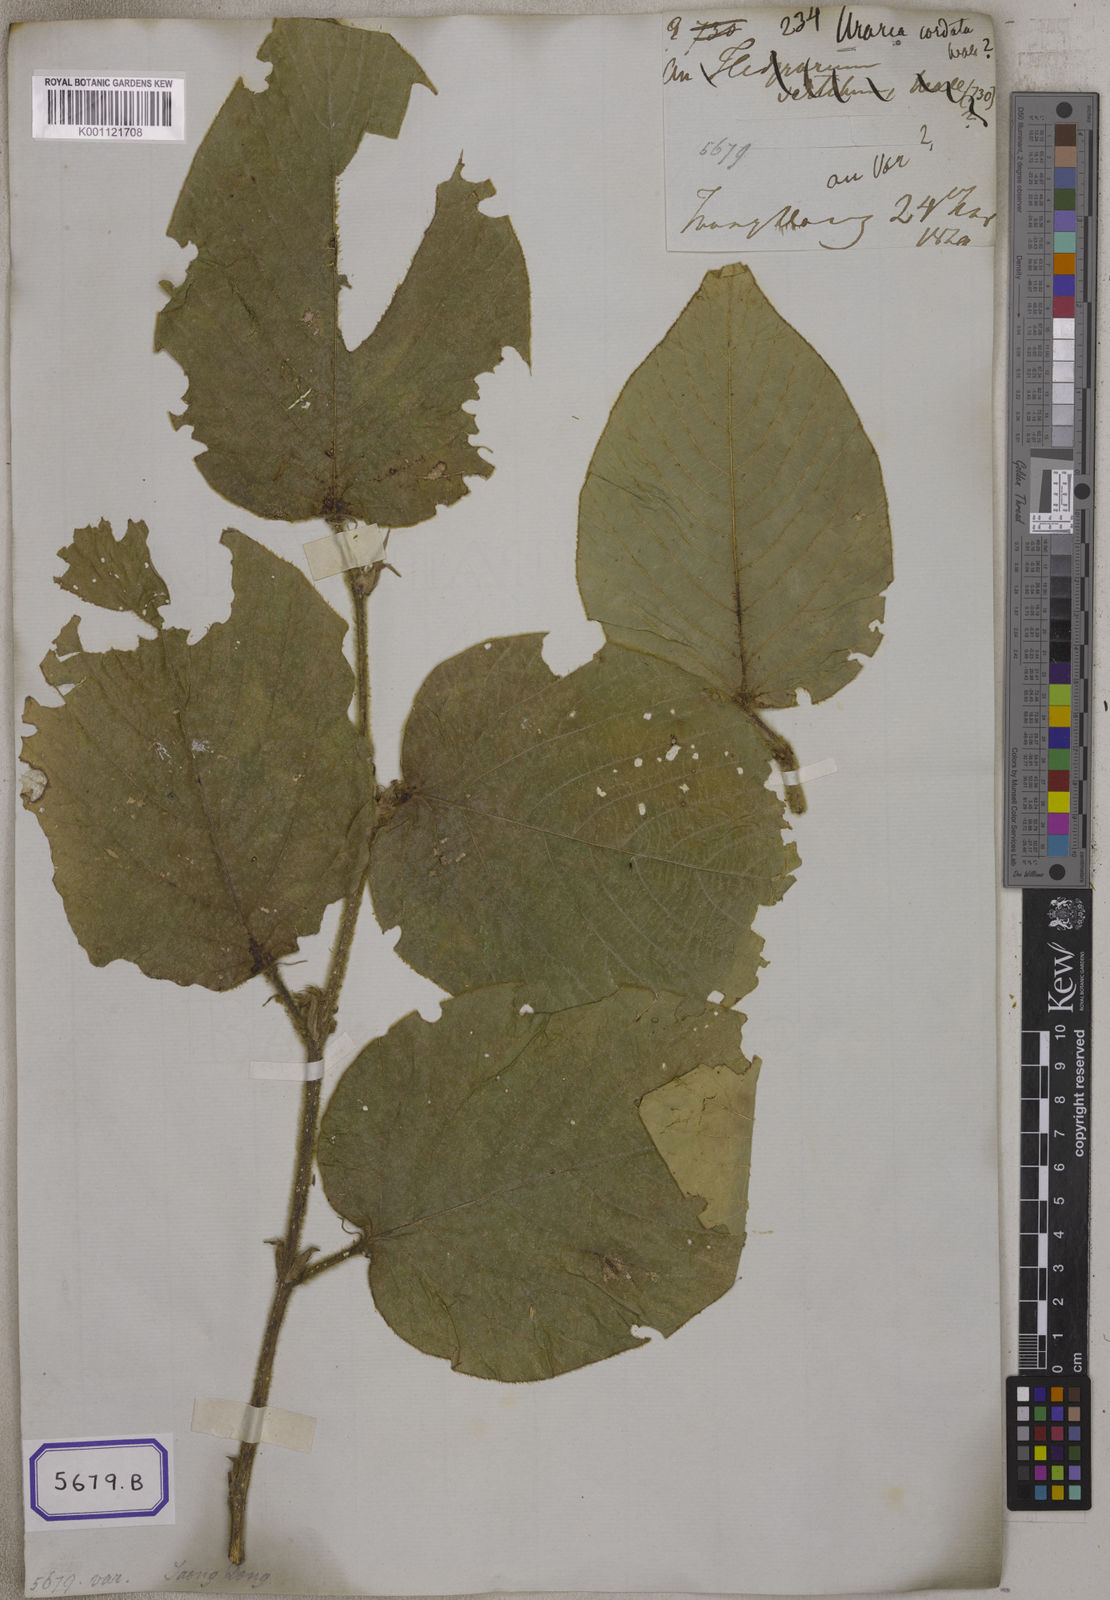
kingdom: Plantae
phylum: Tracheophyta
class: Magnoliopsida
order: Fabales
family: Fabaceae
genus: Uraria
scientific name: Uraria cordifolia
